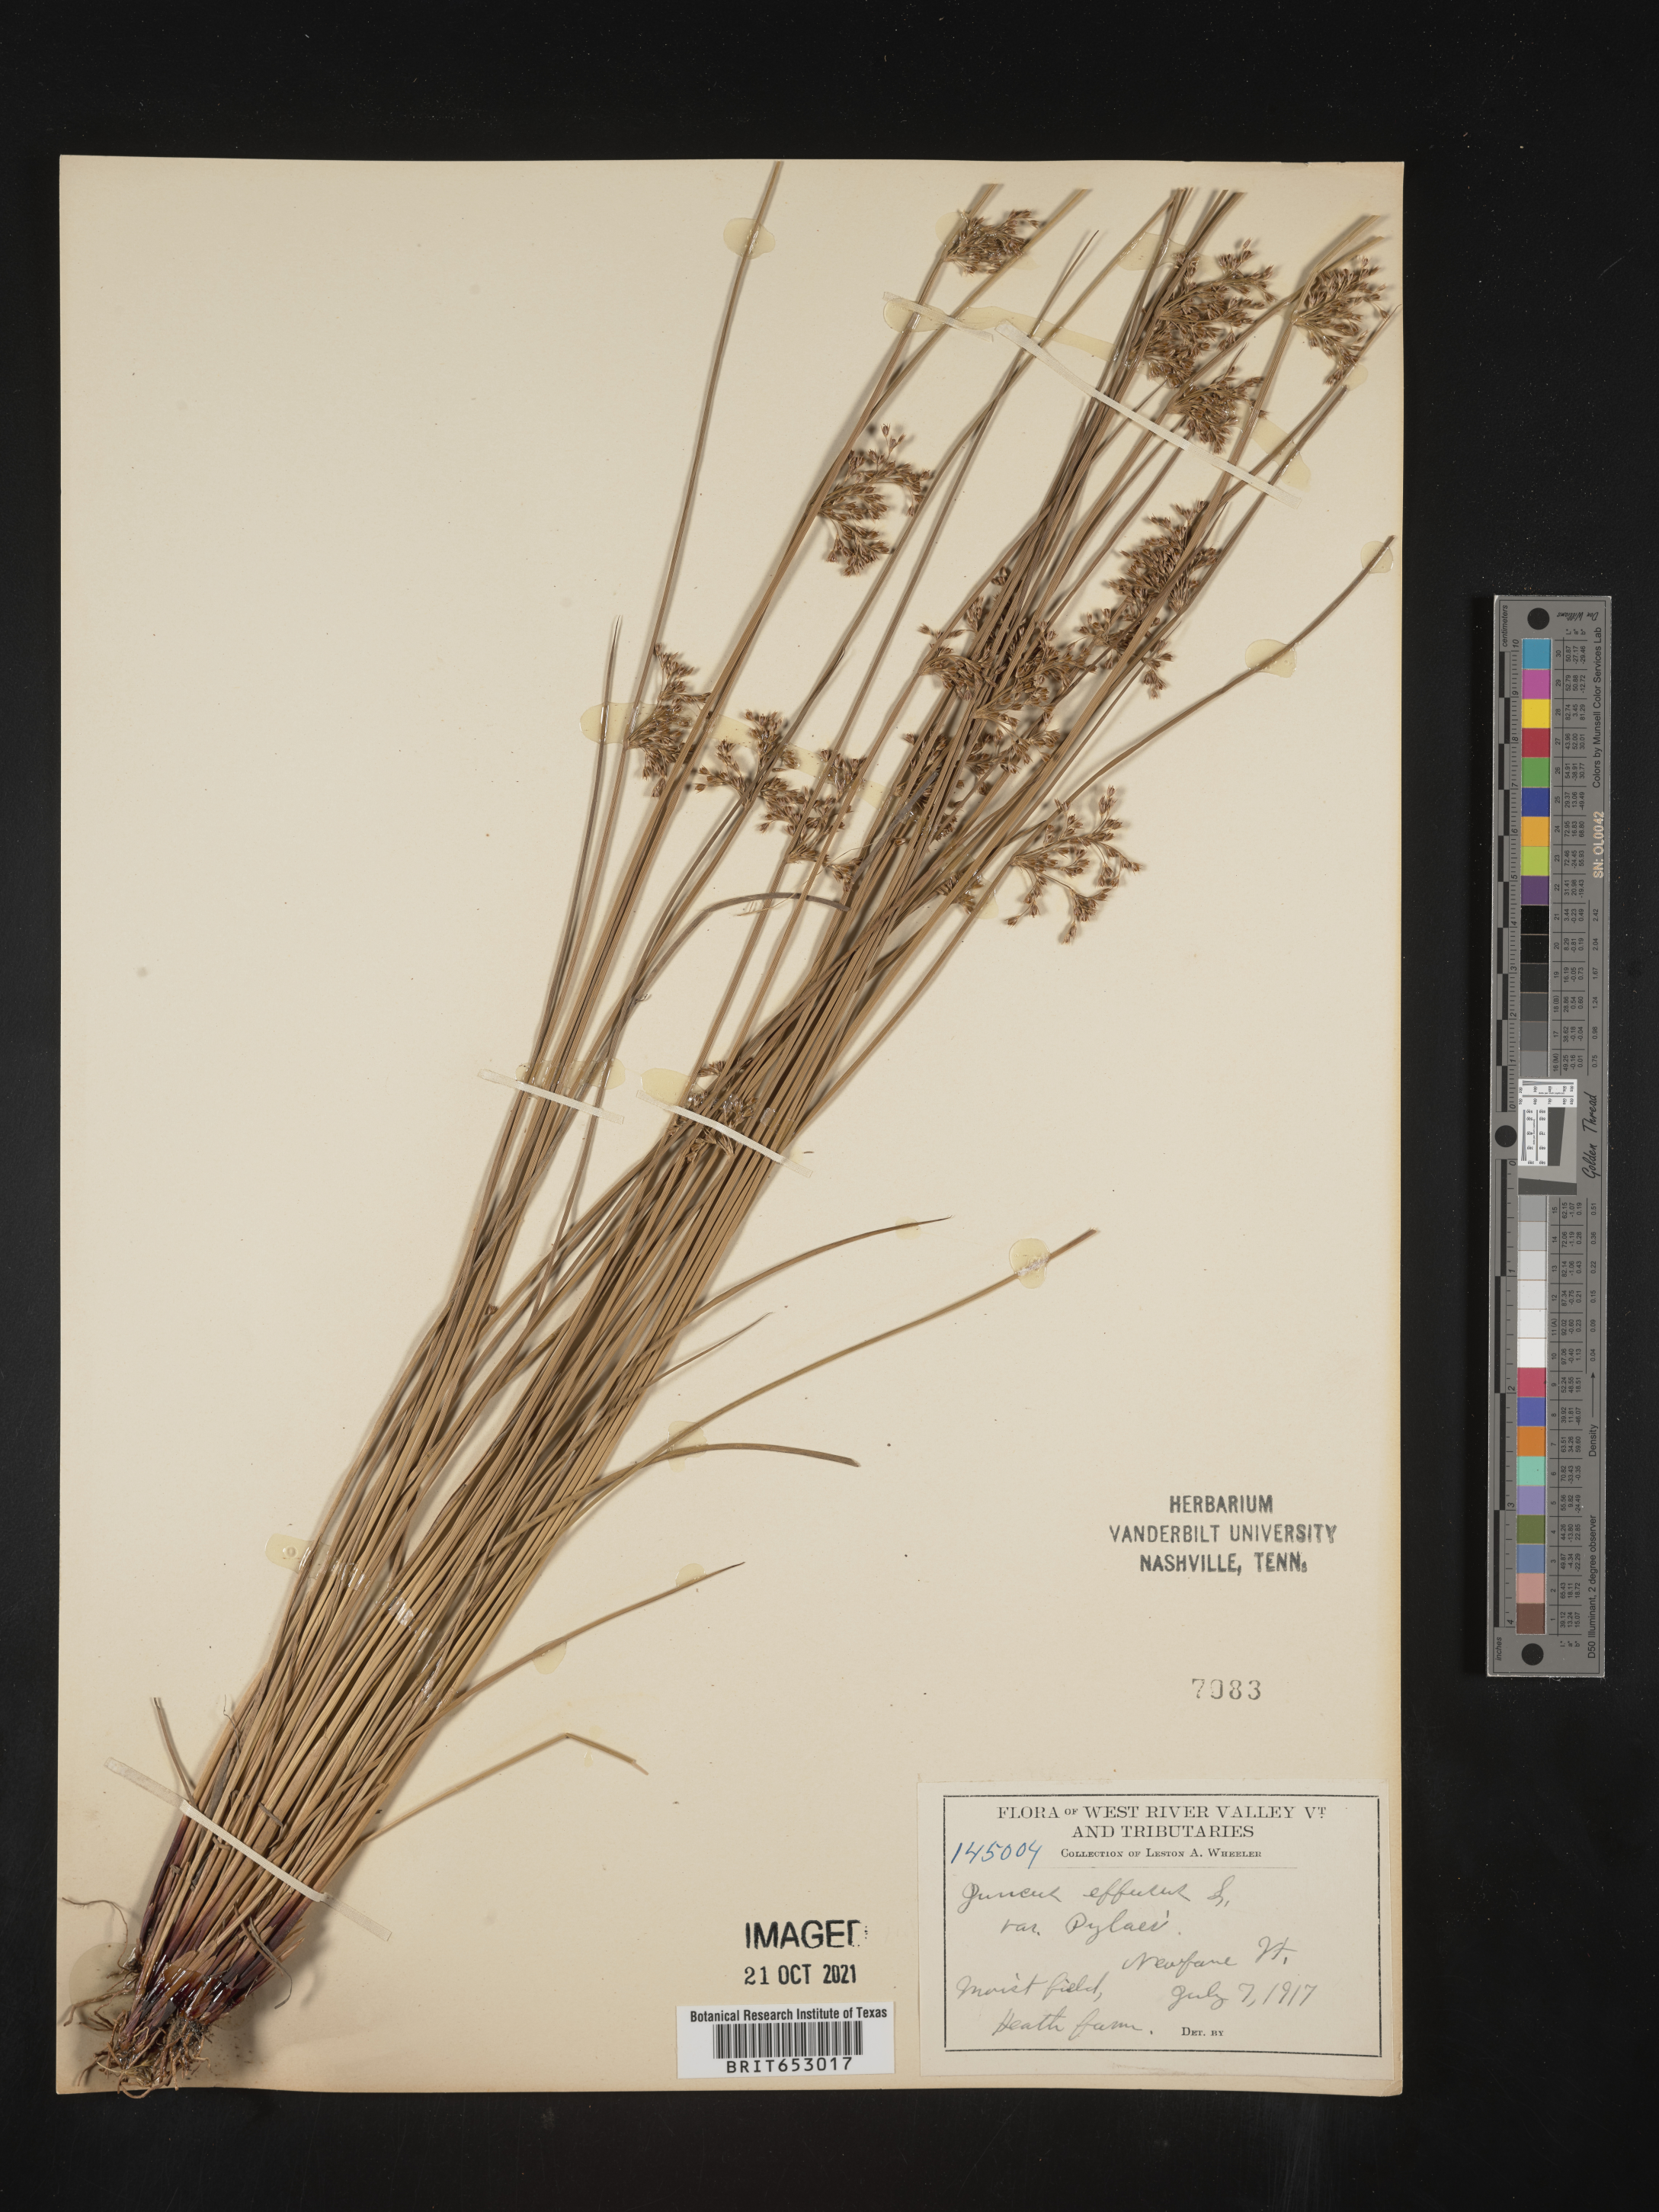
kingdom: Plantae
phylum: Tracheophyta
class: Liliopsida
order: Poales
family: Juncaceae
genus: Juncus
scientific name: Juncus effusus
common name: Soft rush
